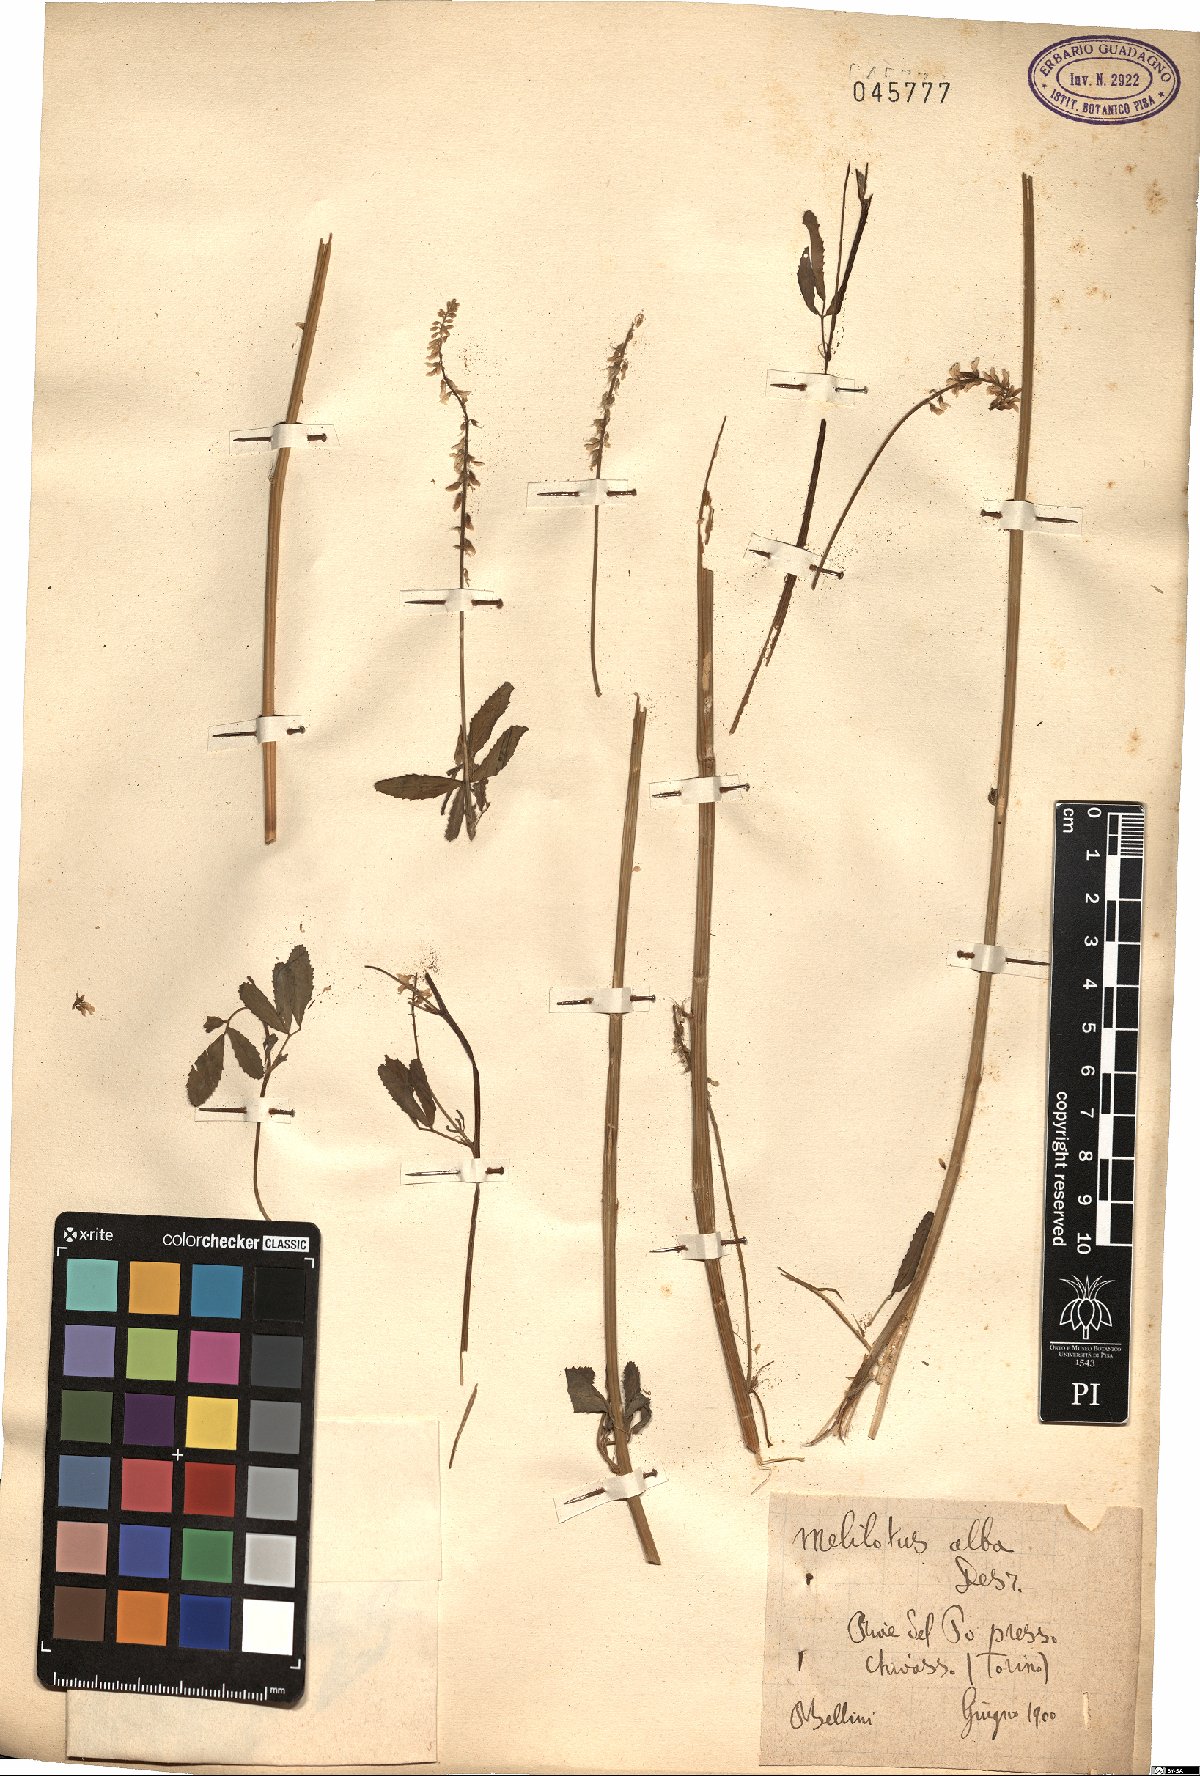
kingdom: Plantae
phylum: Tracheophyta
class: Magnoliopsida
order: Fabales
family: Fabaceae
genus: Melilotus
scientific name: Melilotus albus
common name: White melilot
